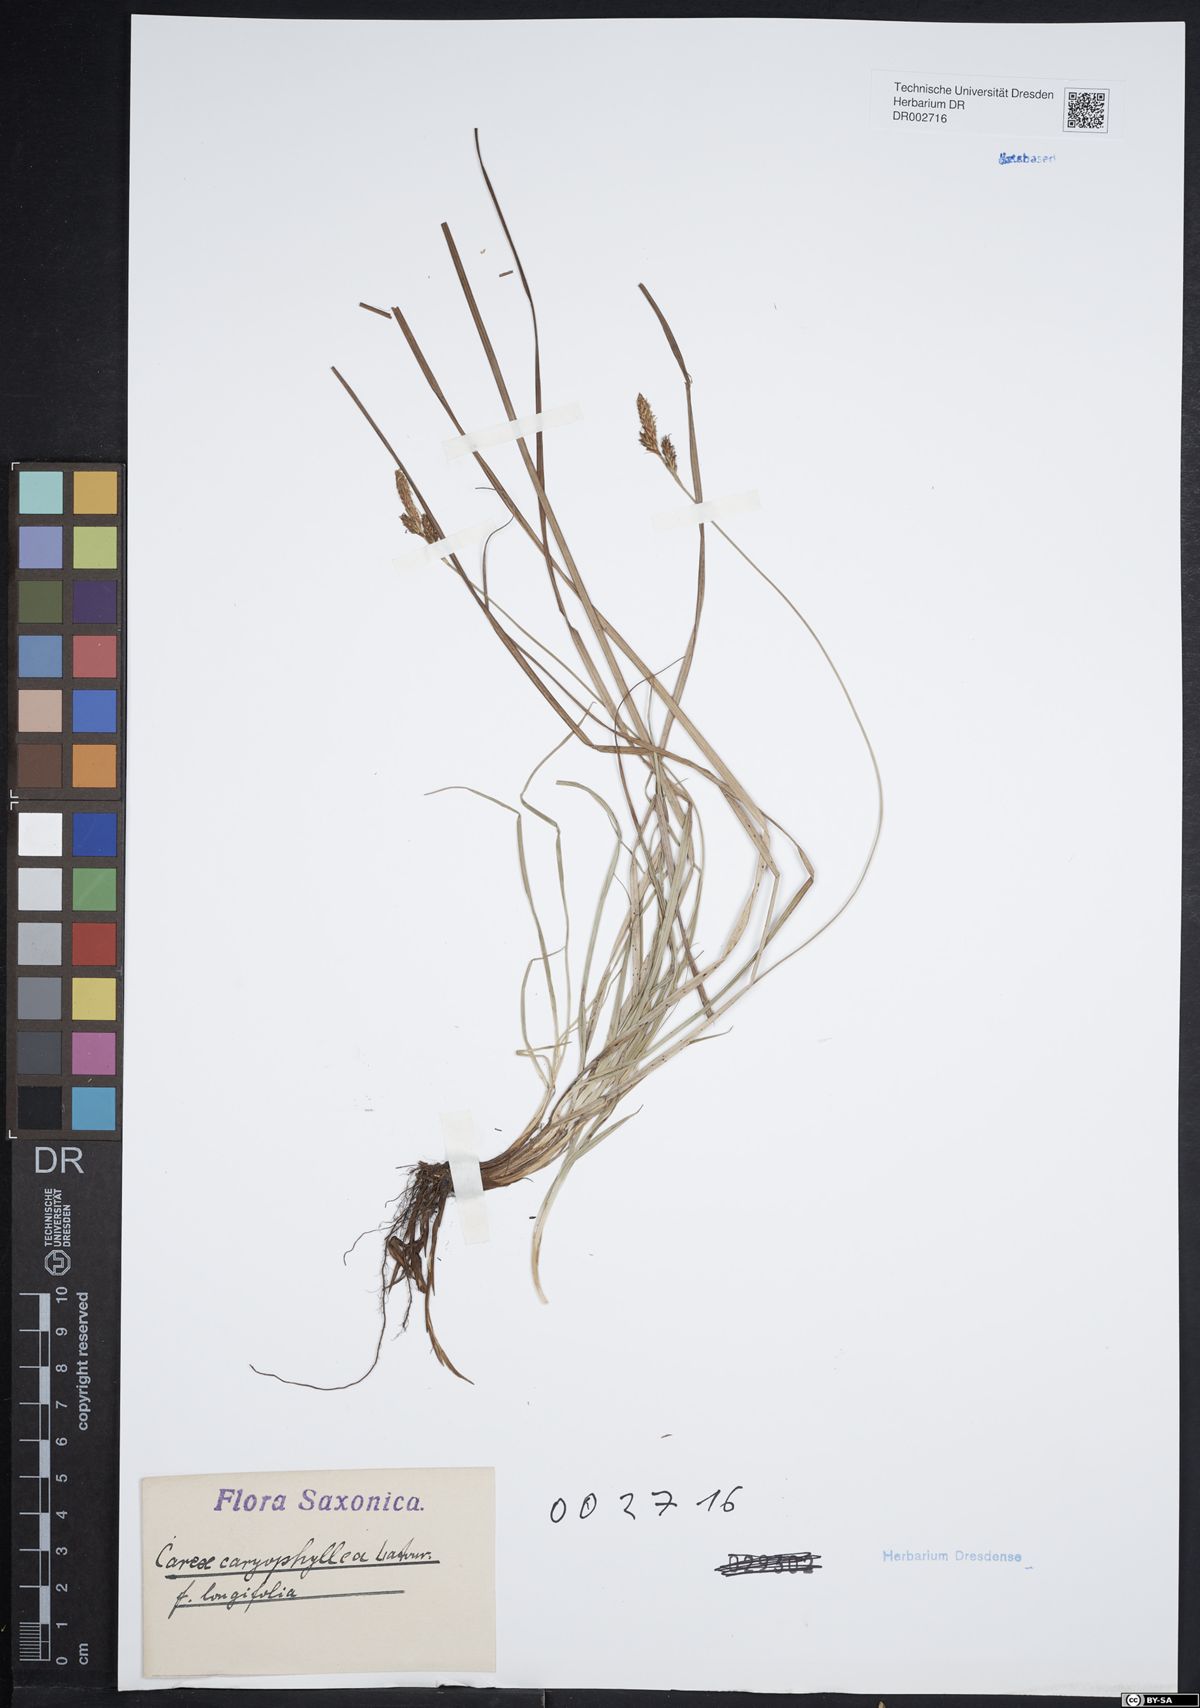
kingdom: Plantae
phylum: Tracheophyta
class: Liliopsida
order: Poales
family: Cyperaceae
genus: Carex
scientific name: Carex umbrosa
